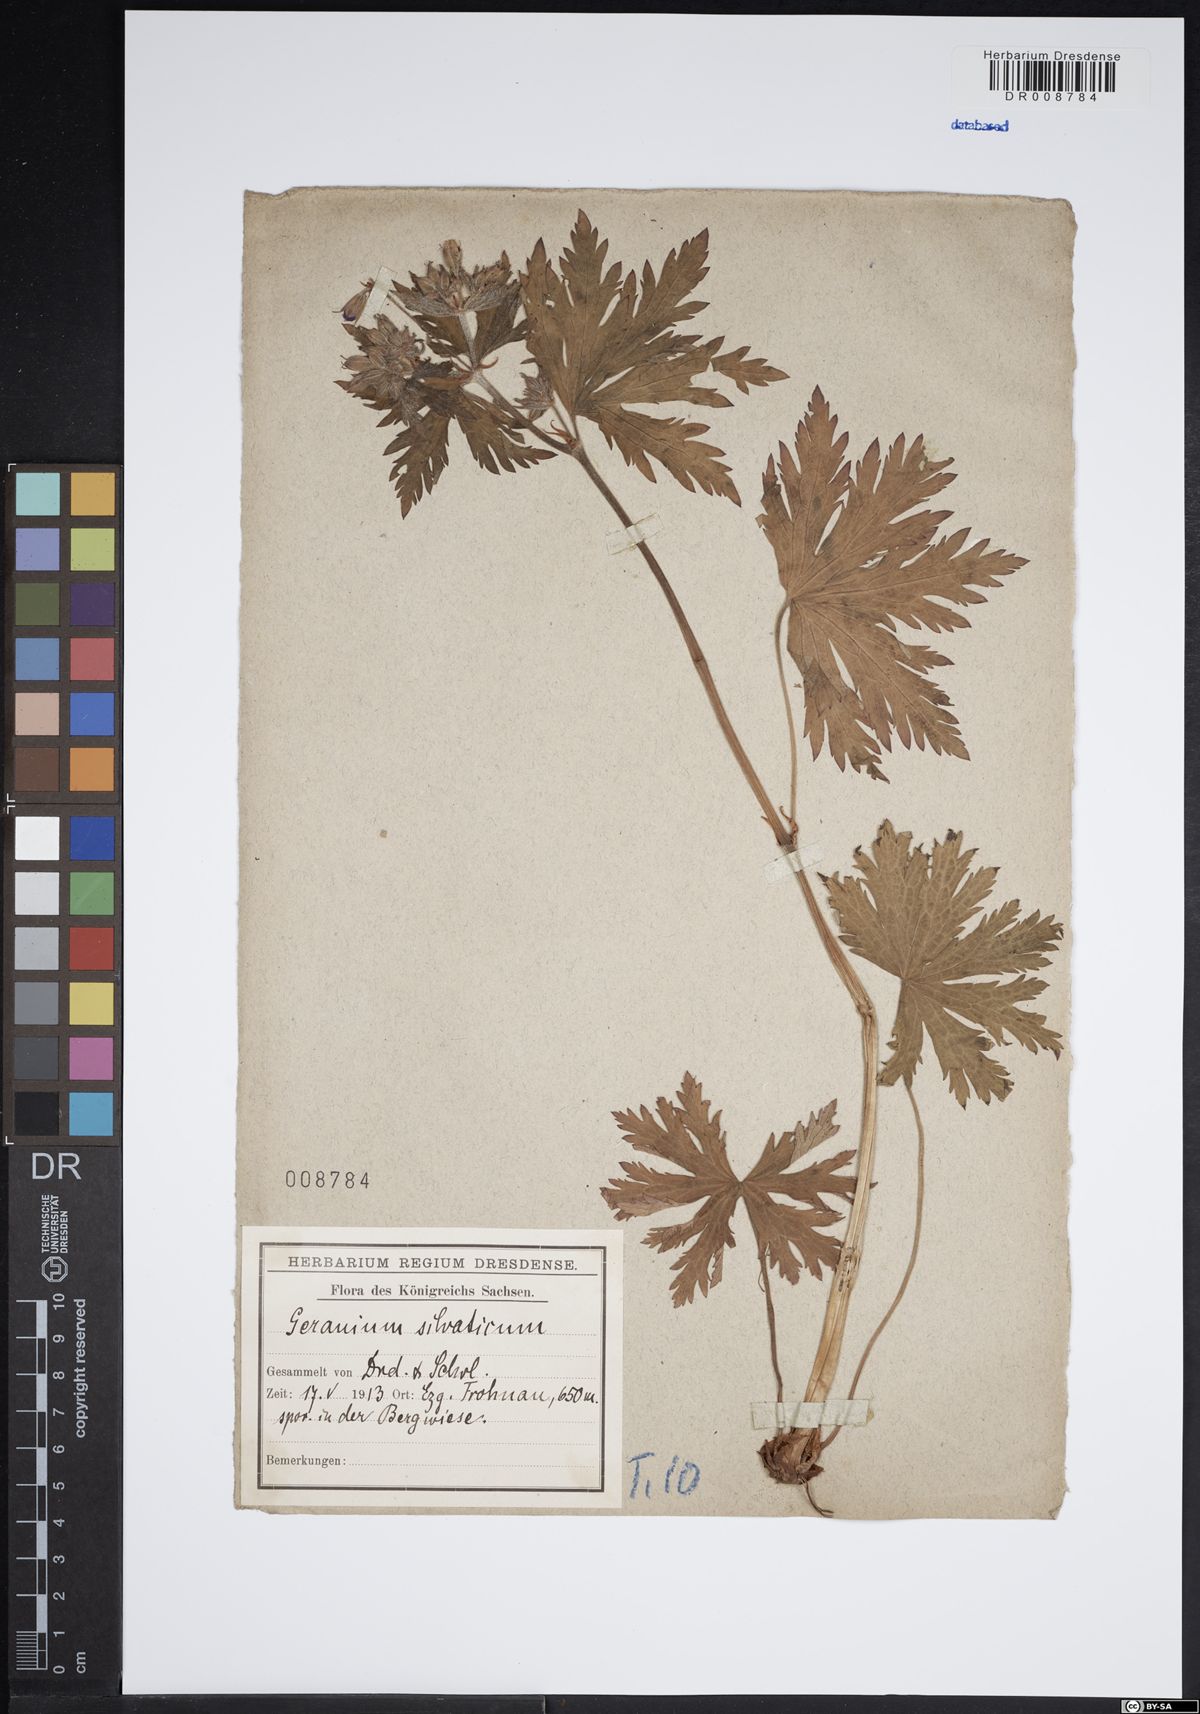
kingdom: Plantae
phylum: Tracheophyta
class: Magnoliopsida
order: Geraniales
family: Geraniaceae
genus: Geranium
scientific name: Geranium sylvaticum
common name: Wood crane's-bill
